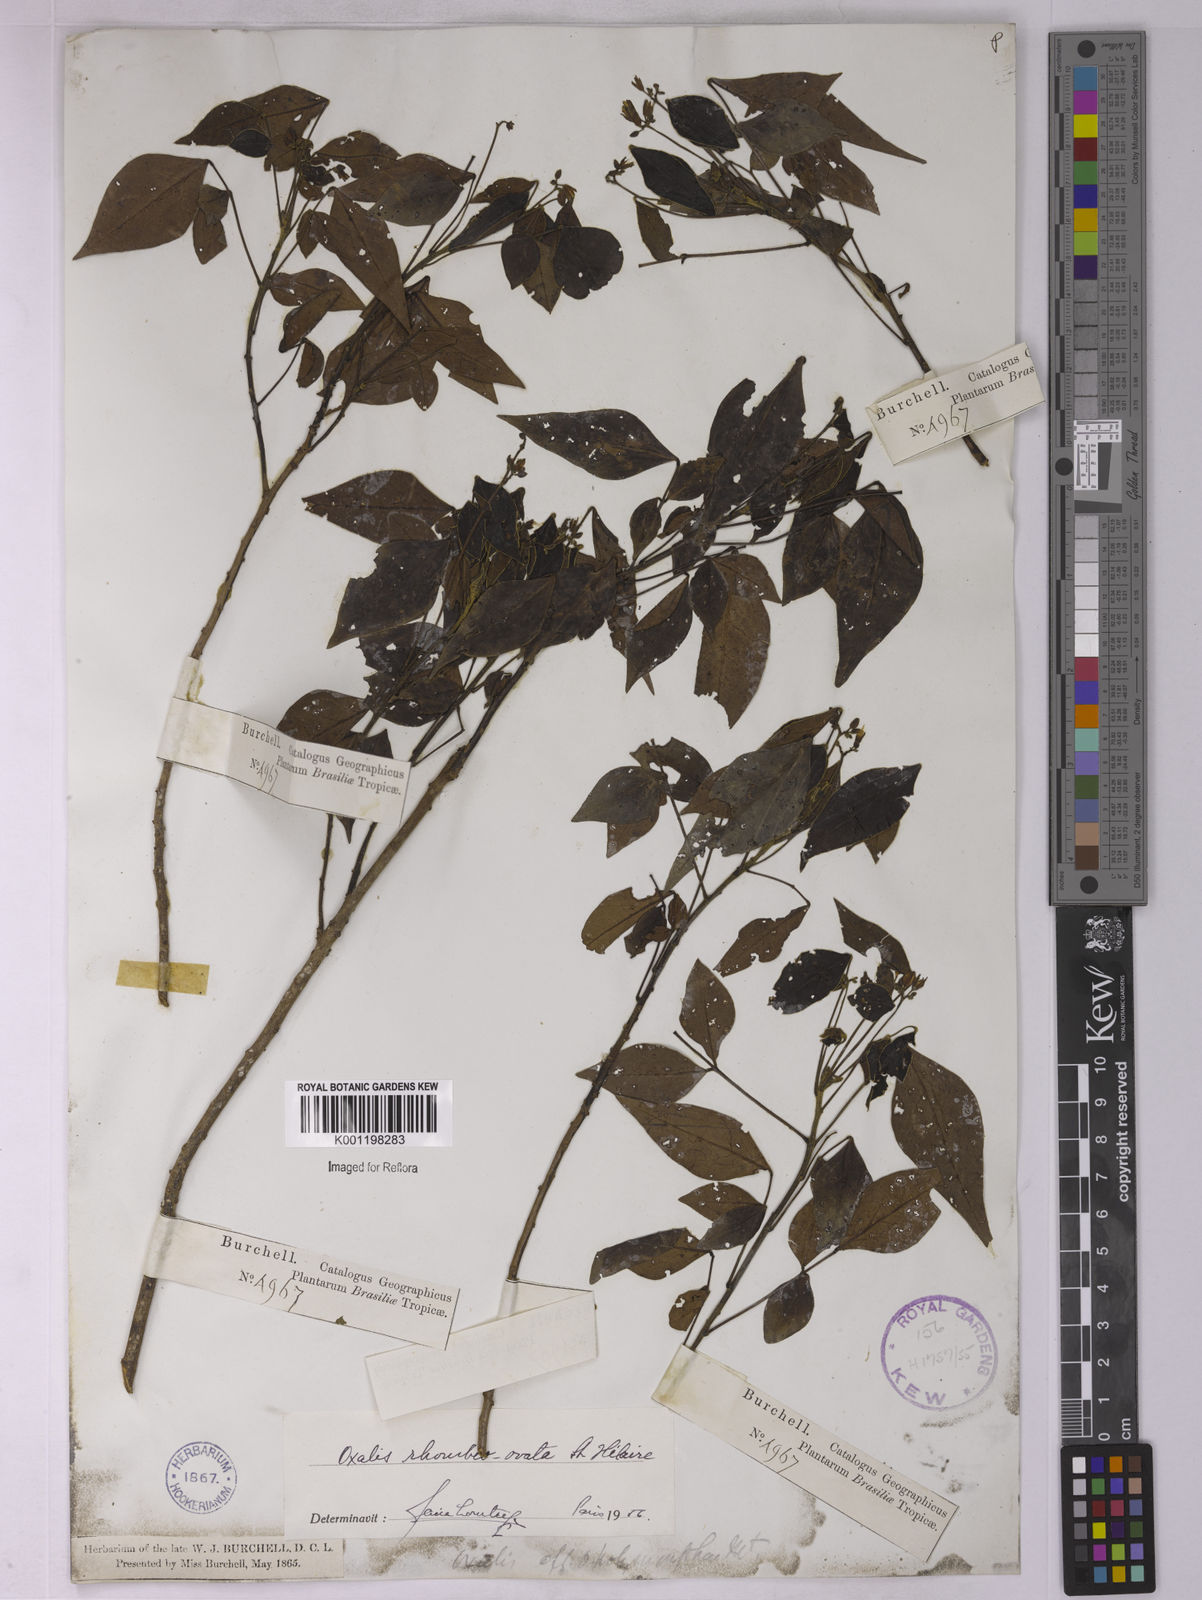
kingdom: Plantae
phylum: Tracheophyta
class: Magnoliopsida
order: Oxalidales
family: Oxalidaceae
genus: Oxalis
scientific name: Oxalis rhombeo-ovata
